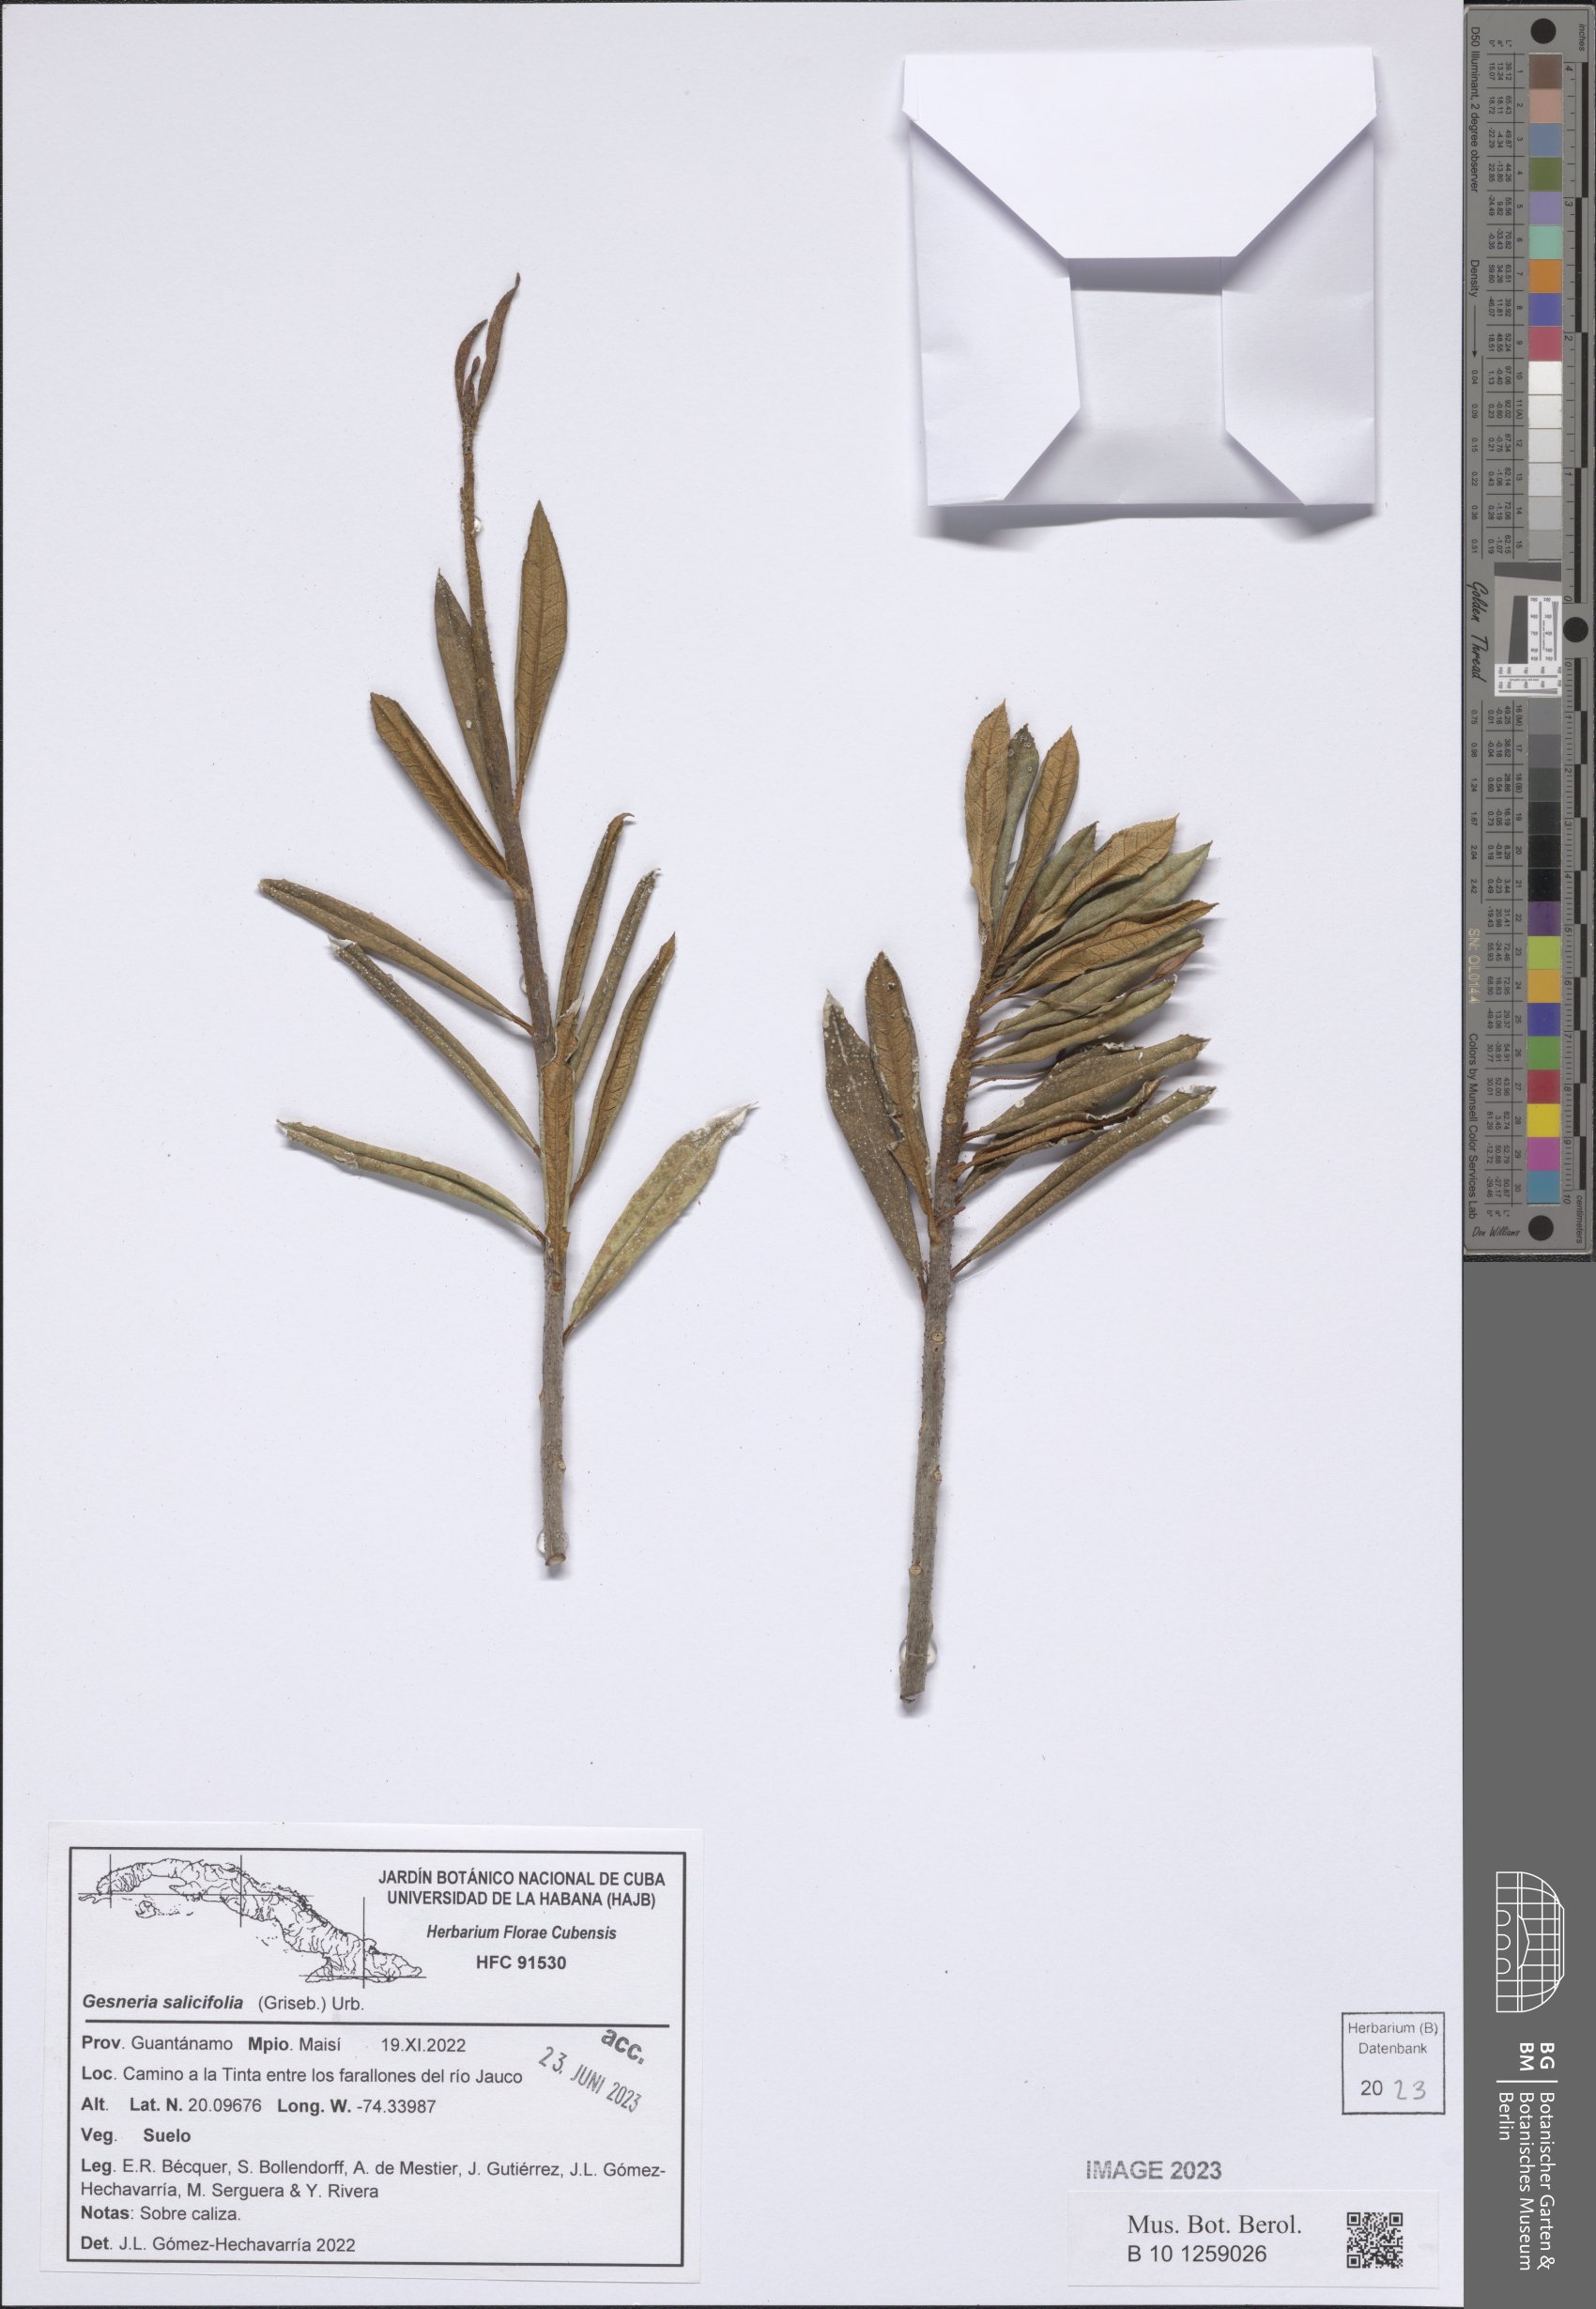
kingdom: Plantae
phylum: Tracheophyta
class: Magnoliopsida
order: Lamiales
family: Gesneriaceae
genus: Gesneria
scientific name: Gesneria salicifolia
